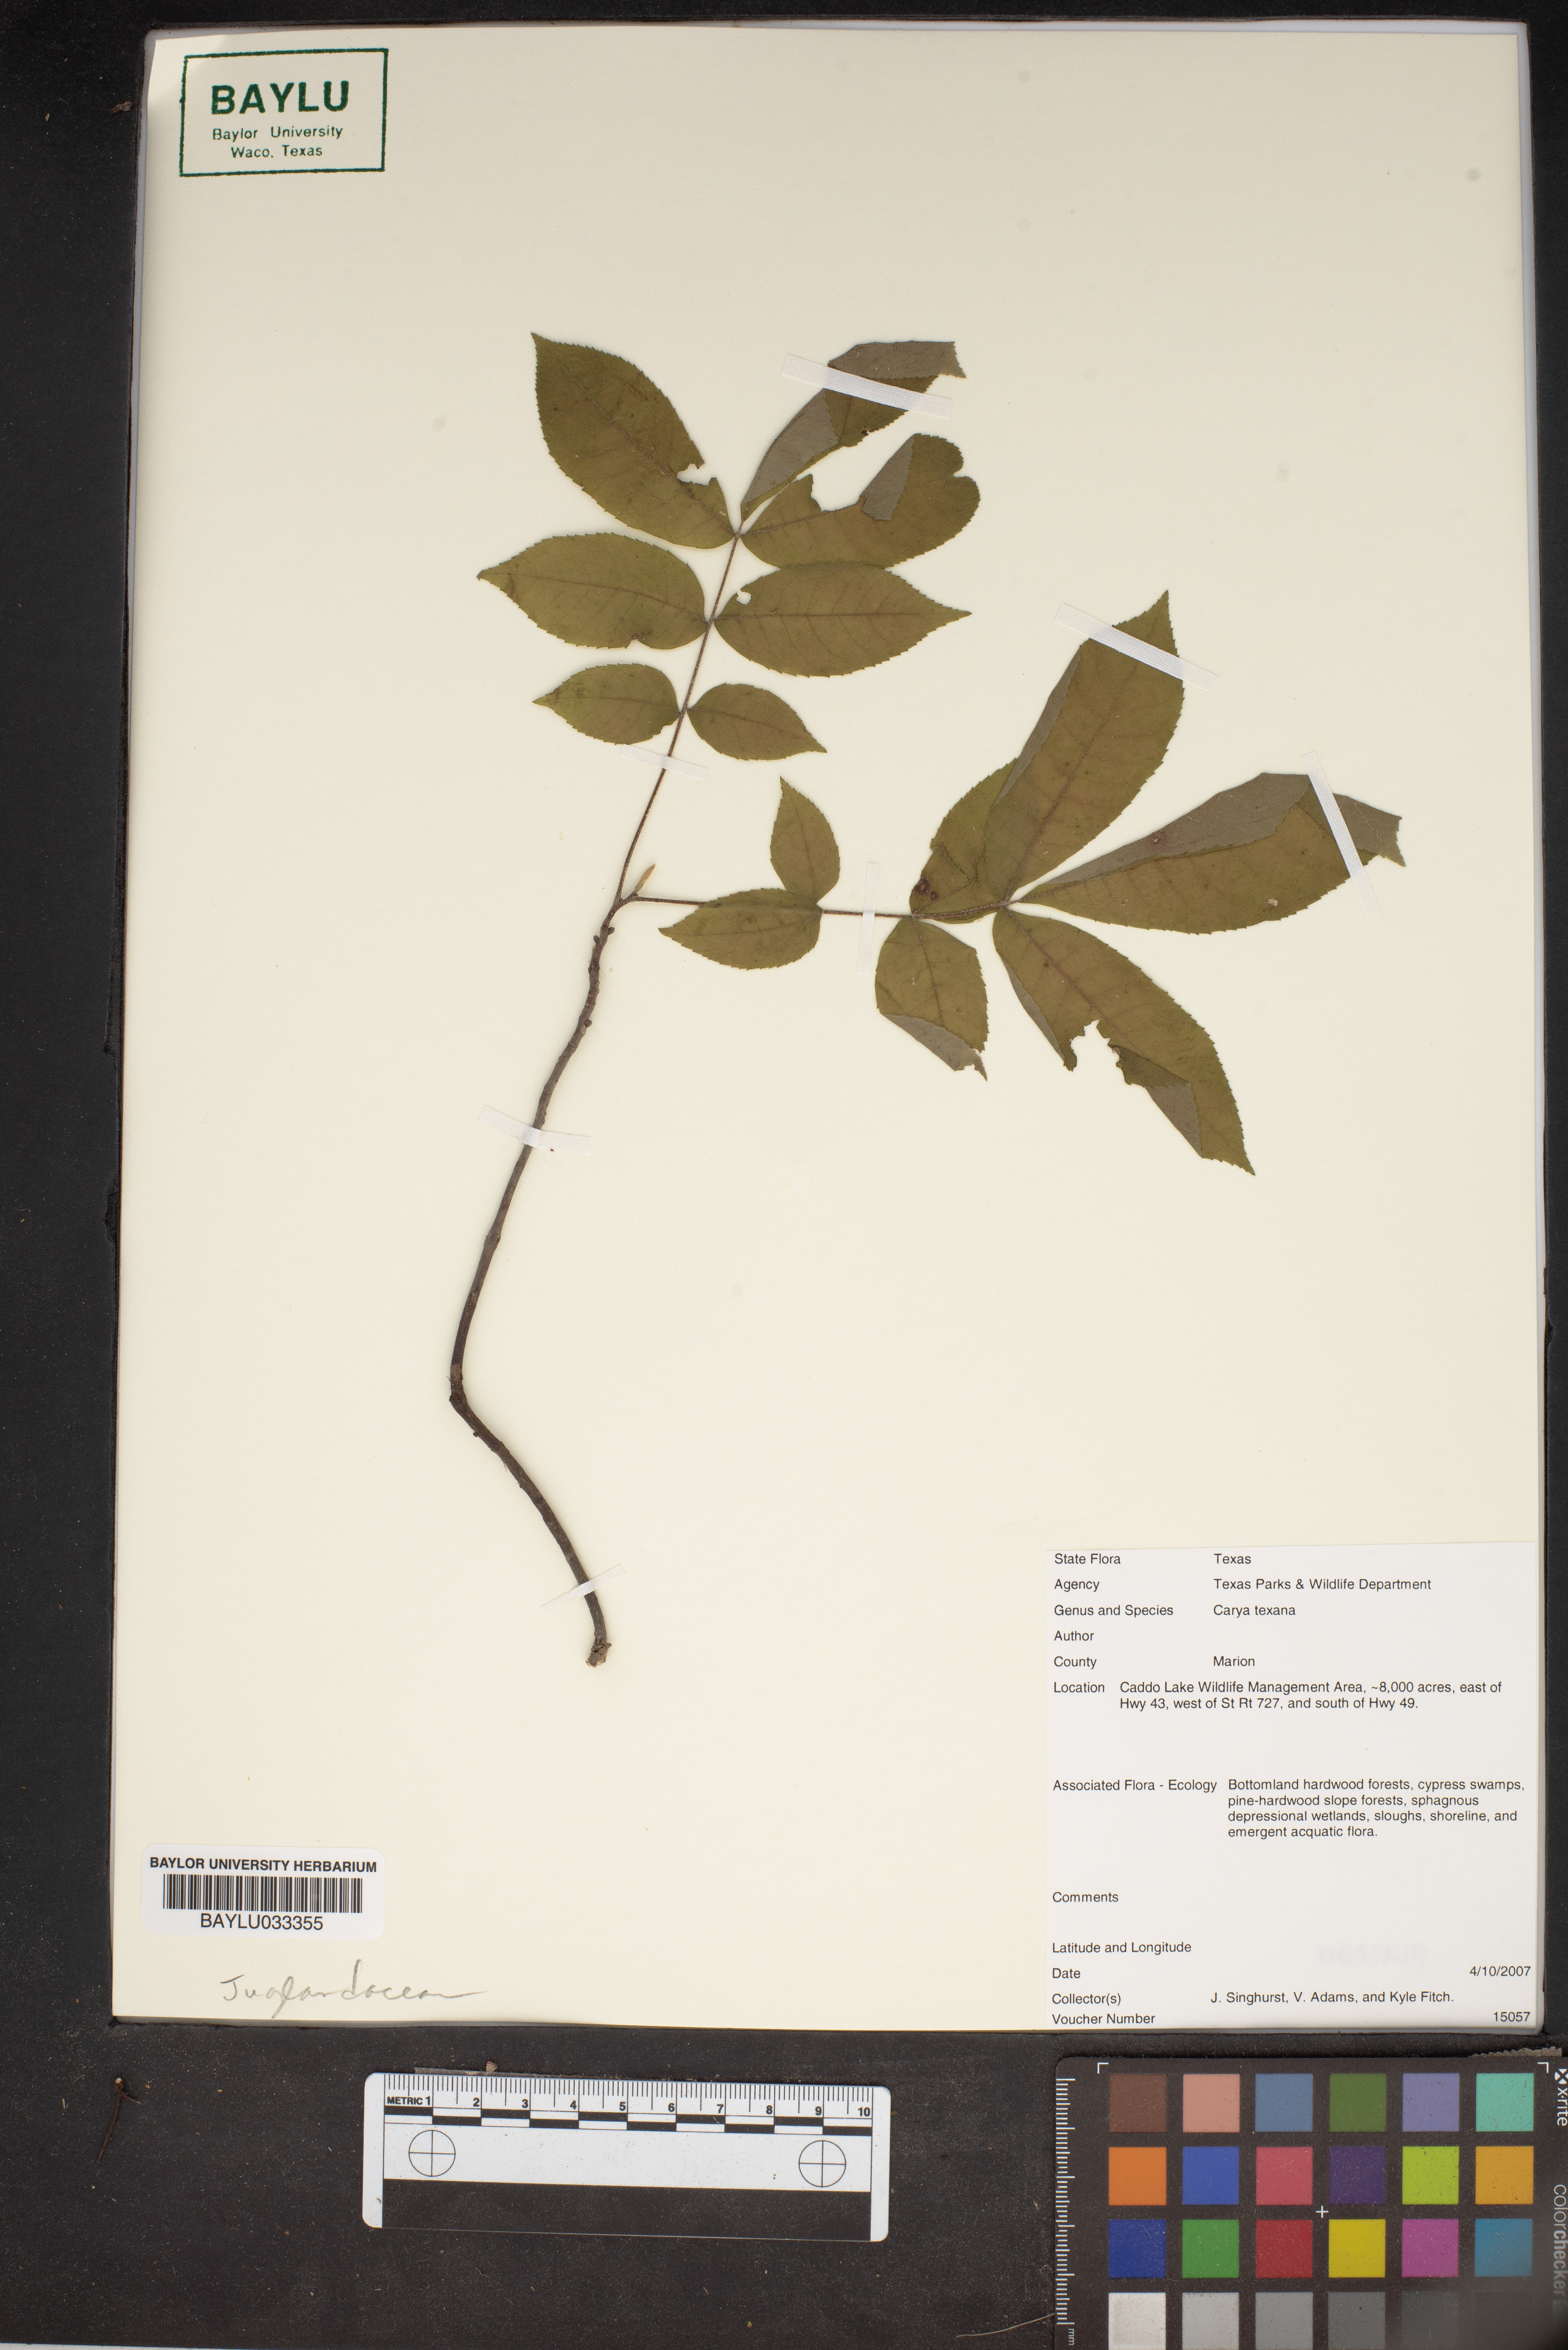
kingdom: Plantae
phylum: Tracheophyta
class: Magnoliopsida
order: Fagales
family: Juglandaceae
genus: Carya
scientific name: Carya texana
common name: Black hickory
